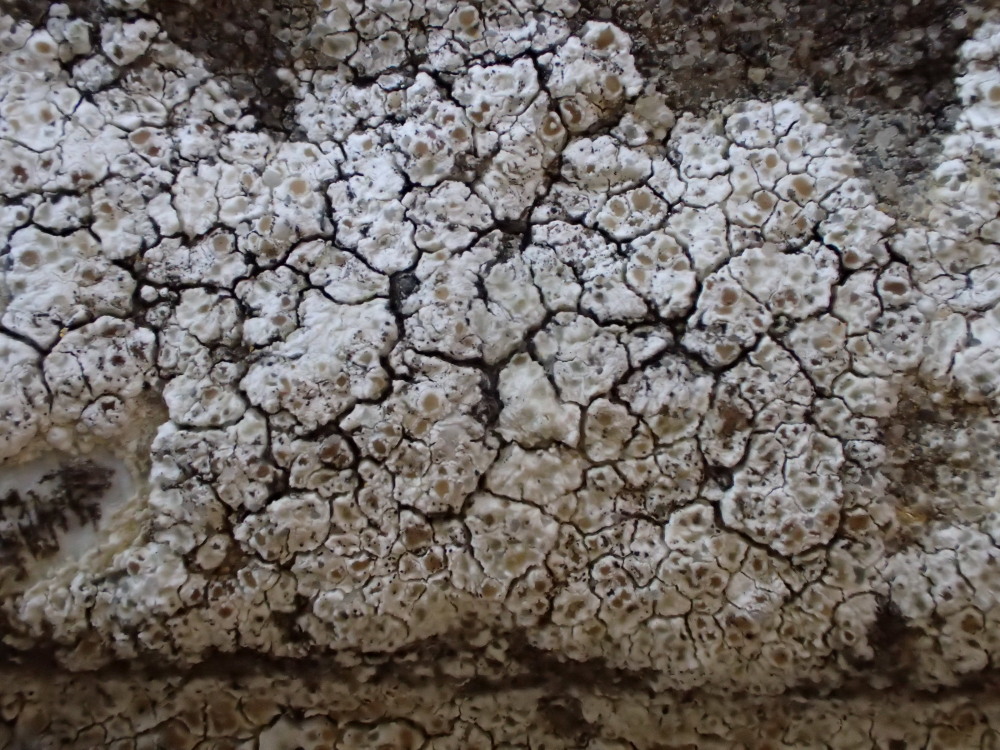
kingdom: Fungi
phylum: Ascomycota
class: Lecanoromycetes
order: Lecanorales
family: Lecanoraceae
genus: Polyozosia
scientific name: Polyozosia albescens
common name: cement-kantskivelav
